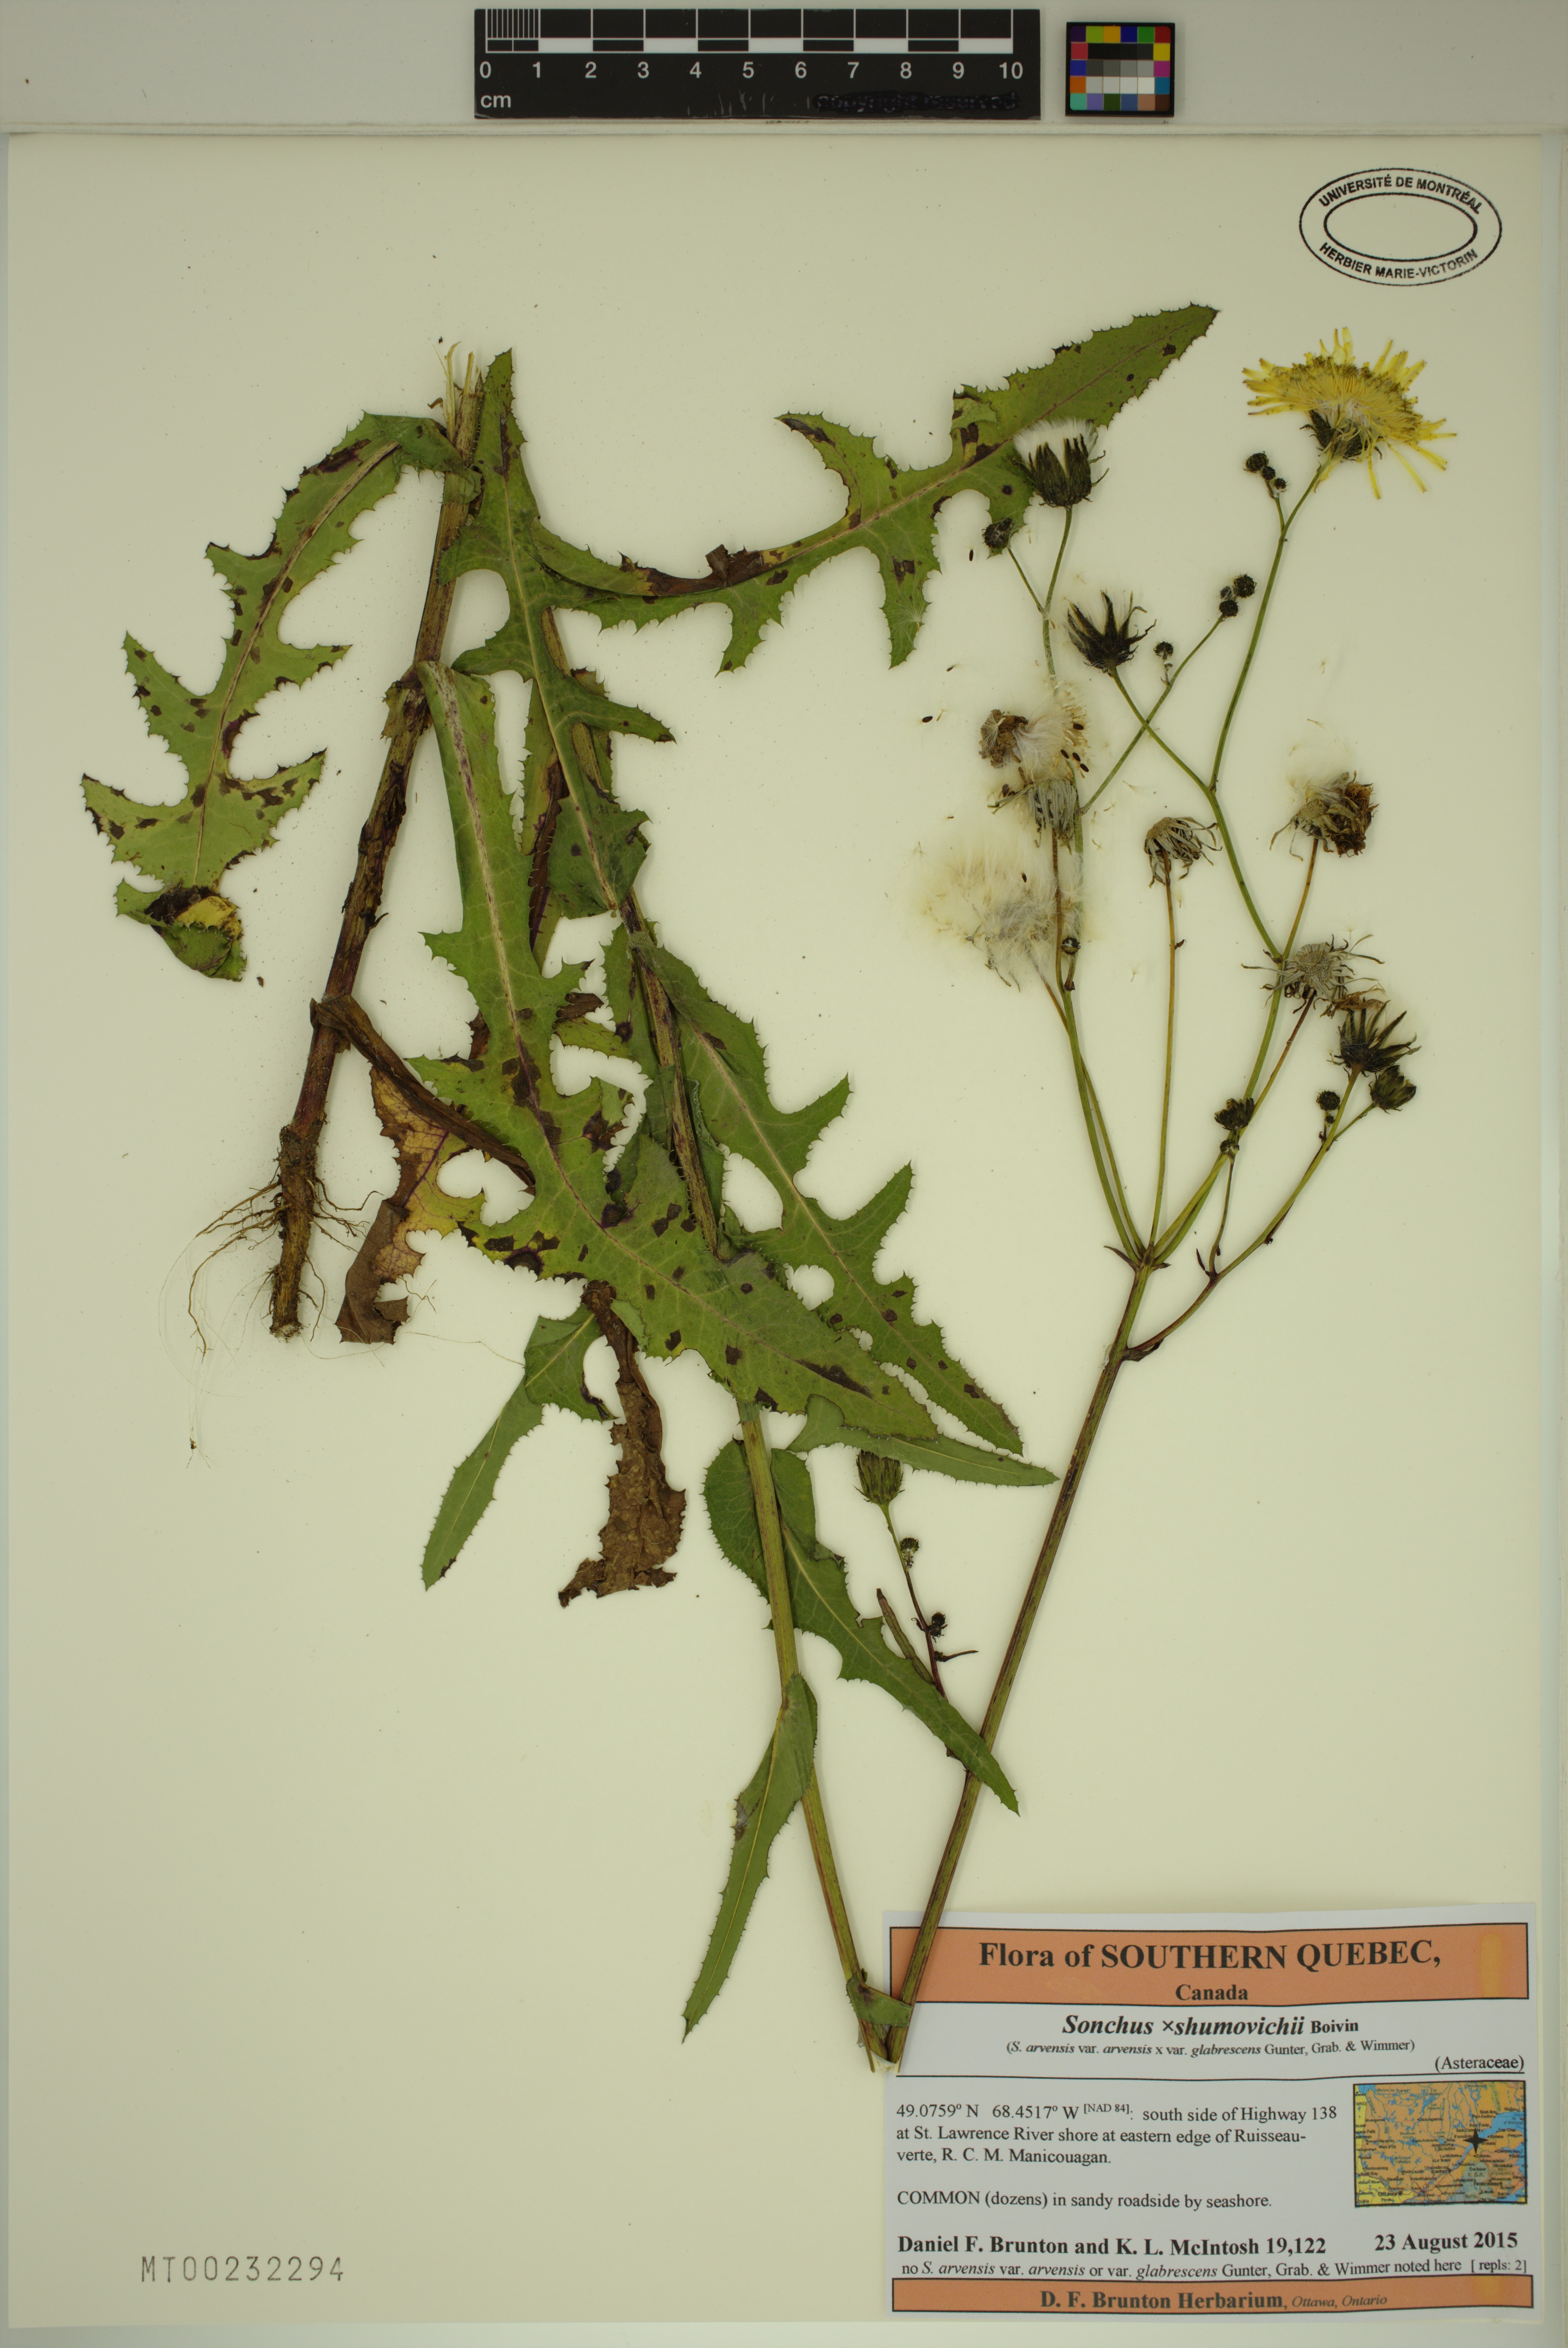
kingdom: Plantae
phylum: Tracheophyta
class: Magnoliopsida
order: Asterales
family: Asteraceae
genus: Sonchus
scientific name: Sonchus arvensis
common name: Perennial sow-thistle
